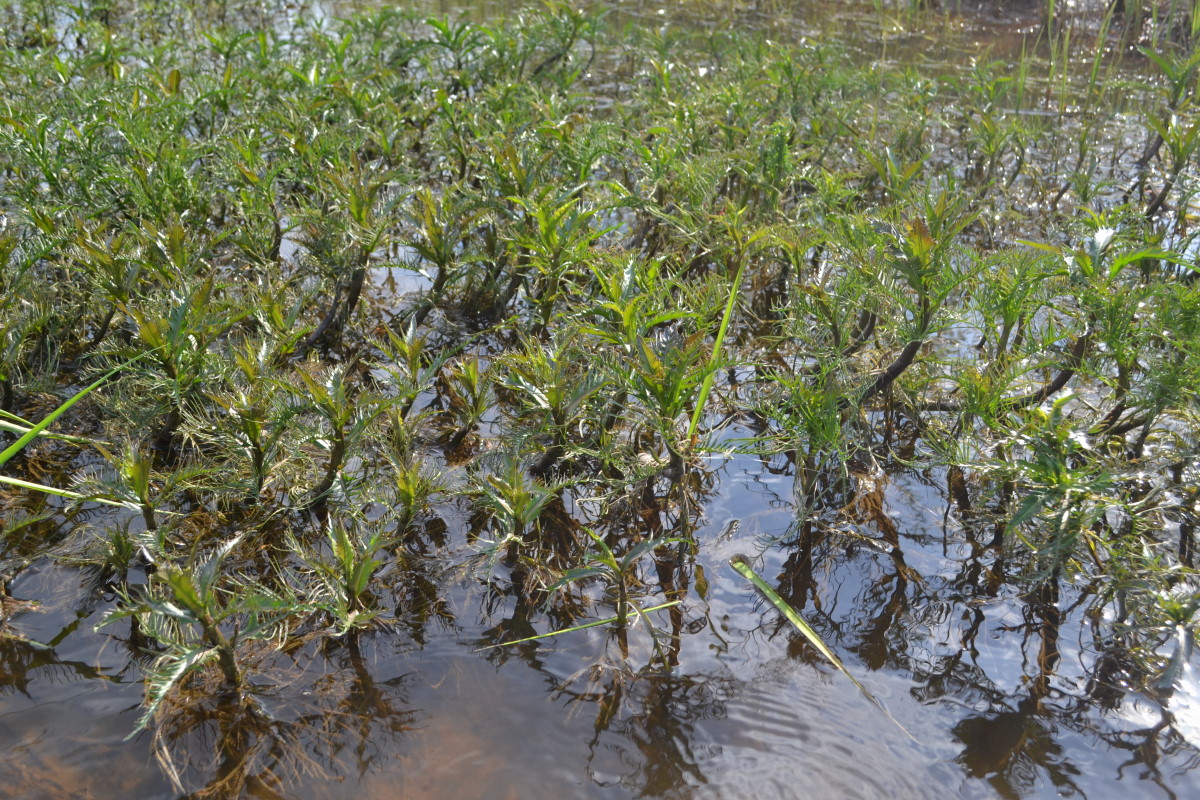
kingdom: Plantae
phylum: Tracheophyta
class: Magnoliopsida
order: Brassicales
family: Brassicaceae
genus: Rorippa
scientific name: Rorippa amphibia
